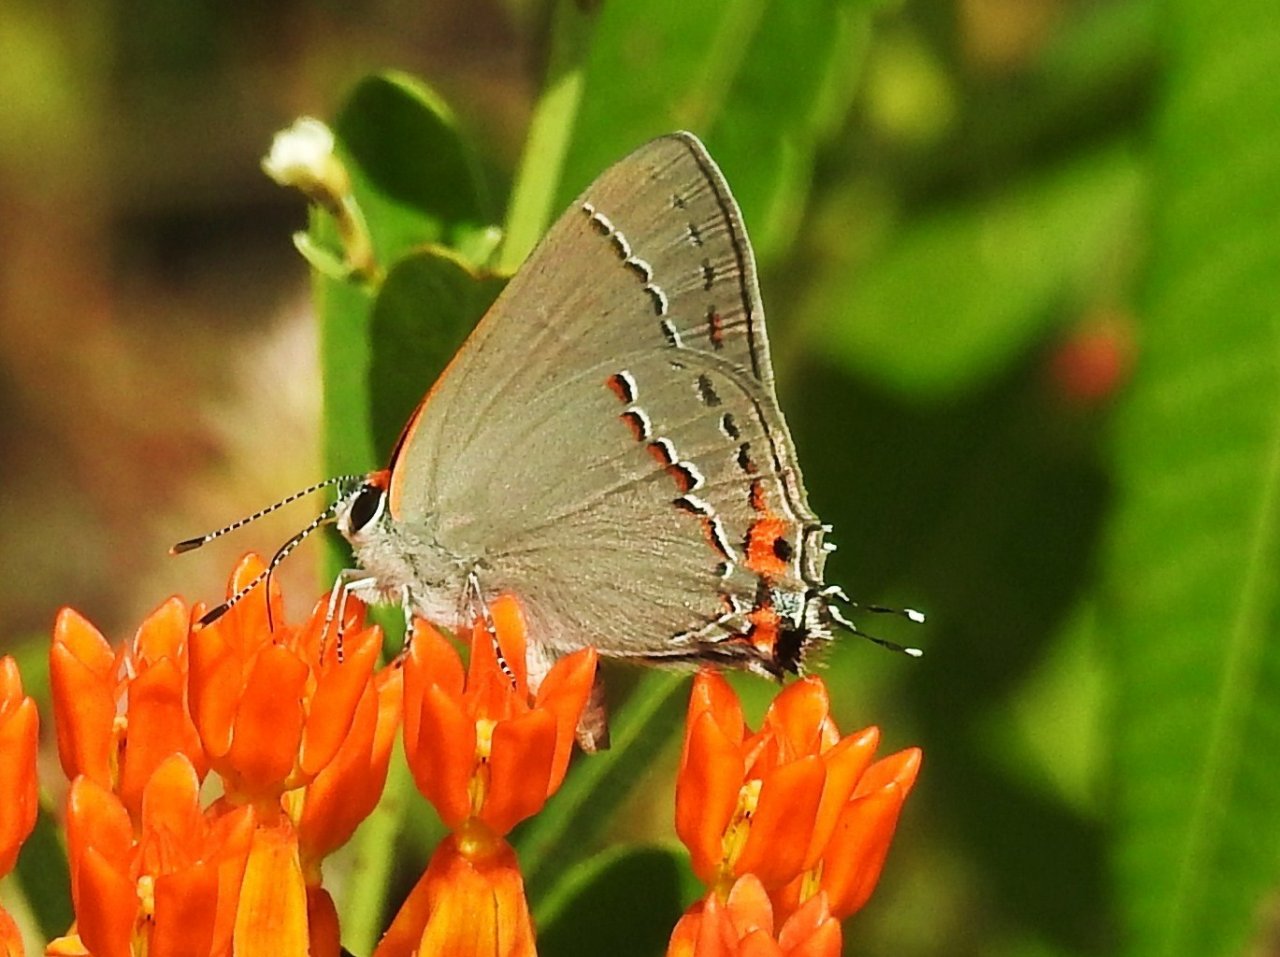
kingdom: Animalia
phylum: Arthropoda
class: Insecta
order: Lepidoptera
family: Lycaenidae
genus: Strymon
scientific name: Strymon melinus
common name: Gray Hairstreak
